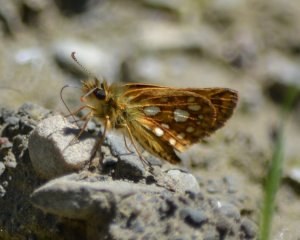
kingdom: Animalia
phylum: Arthropoda
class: Insecta
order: Lepidoptera
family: Hesperiidae
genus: Carterocephalus
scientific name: Carterocephalus palaemon
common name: Chequered Skipper
